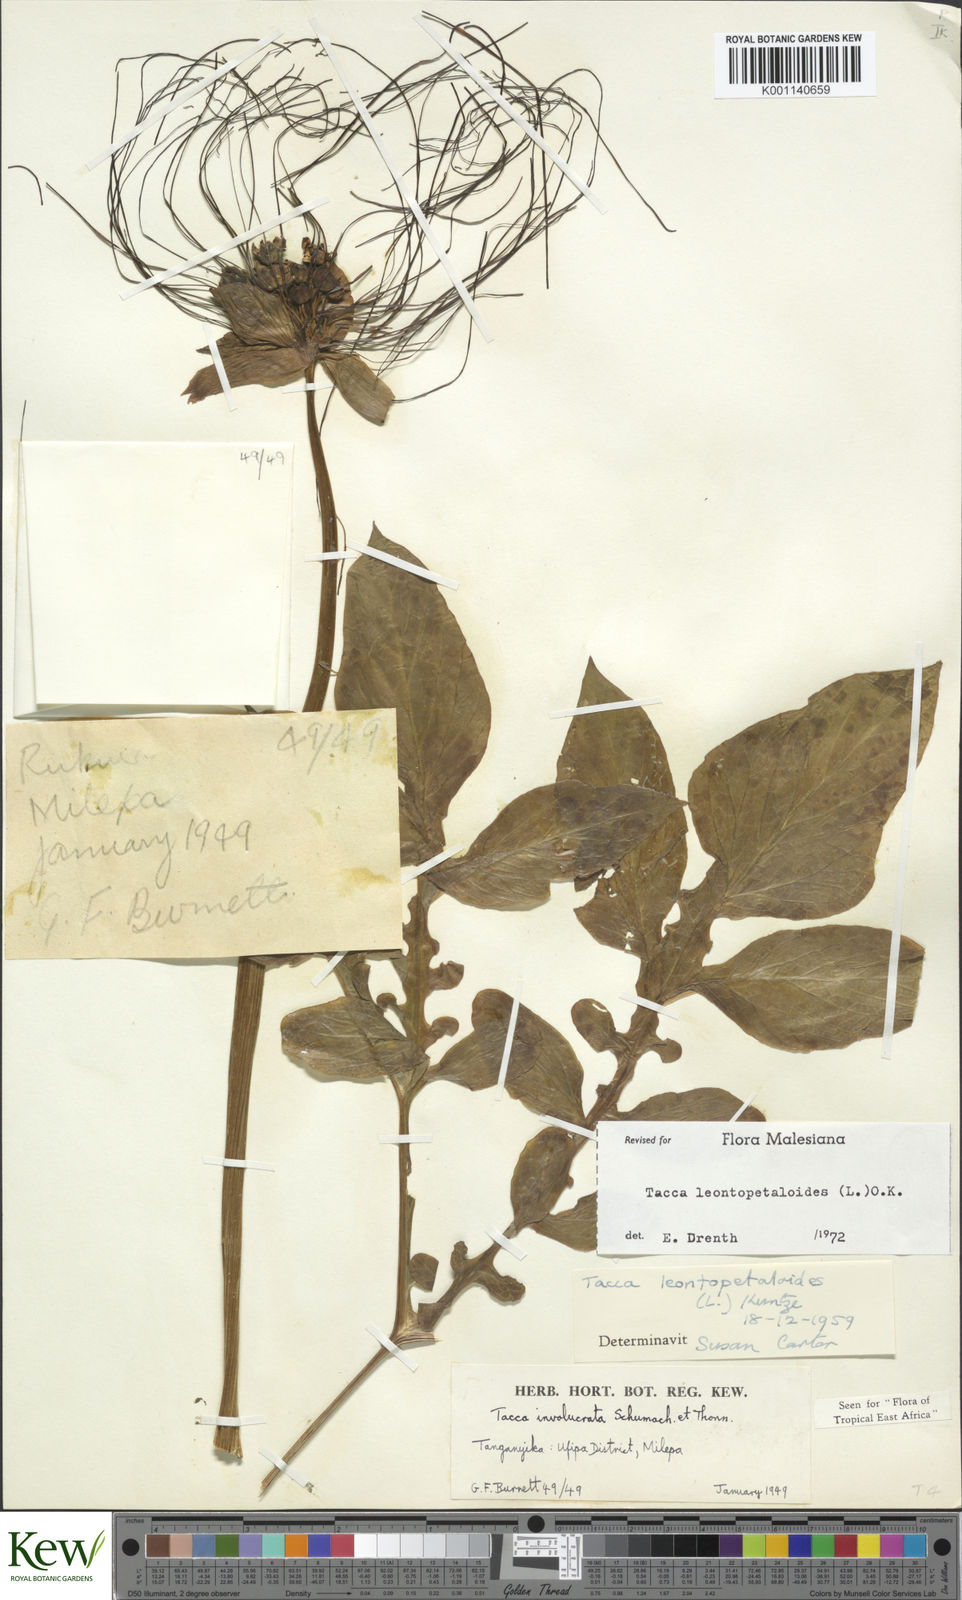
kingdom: Plantae
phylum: Tracheophyta
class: Liliopsida
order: Dioscoreales
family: Dioscoreaceae
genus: Tacca
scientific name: Tacca leontopetaloides
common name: Arrowroot
